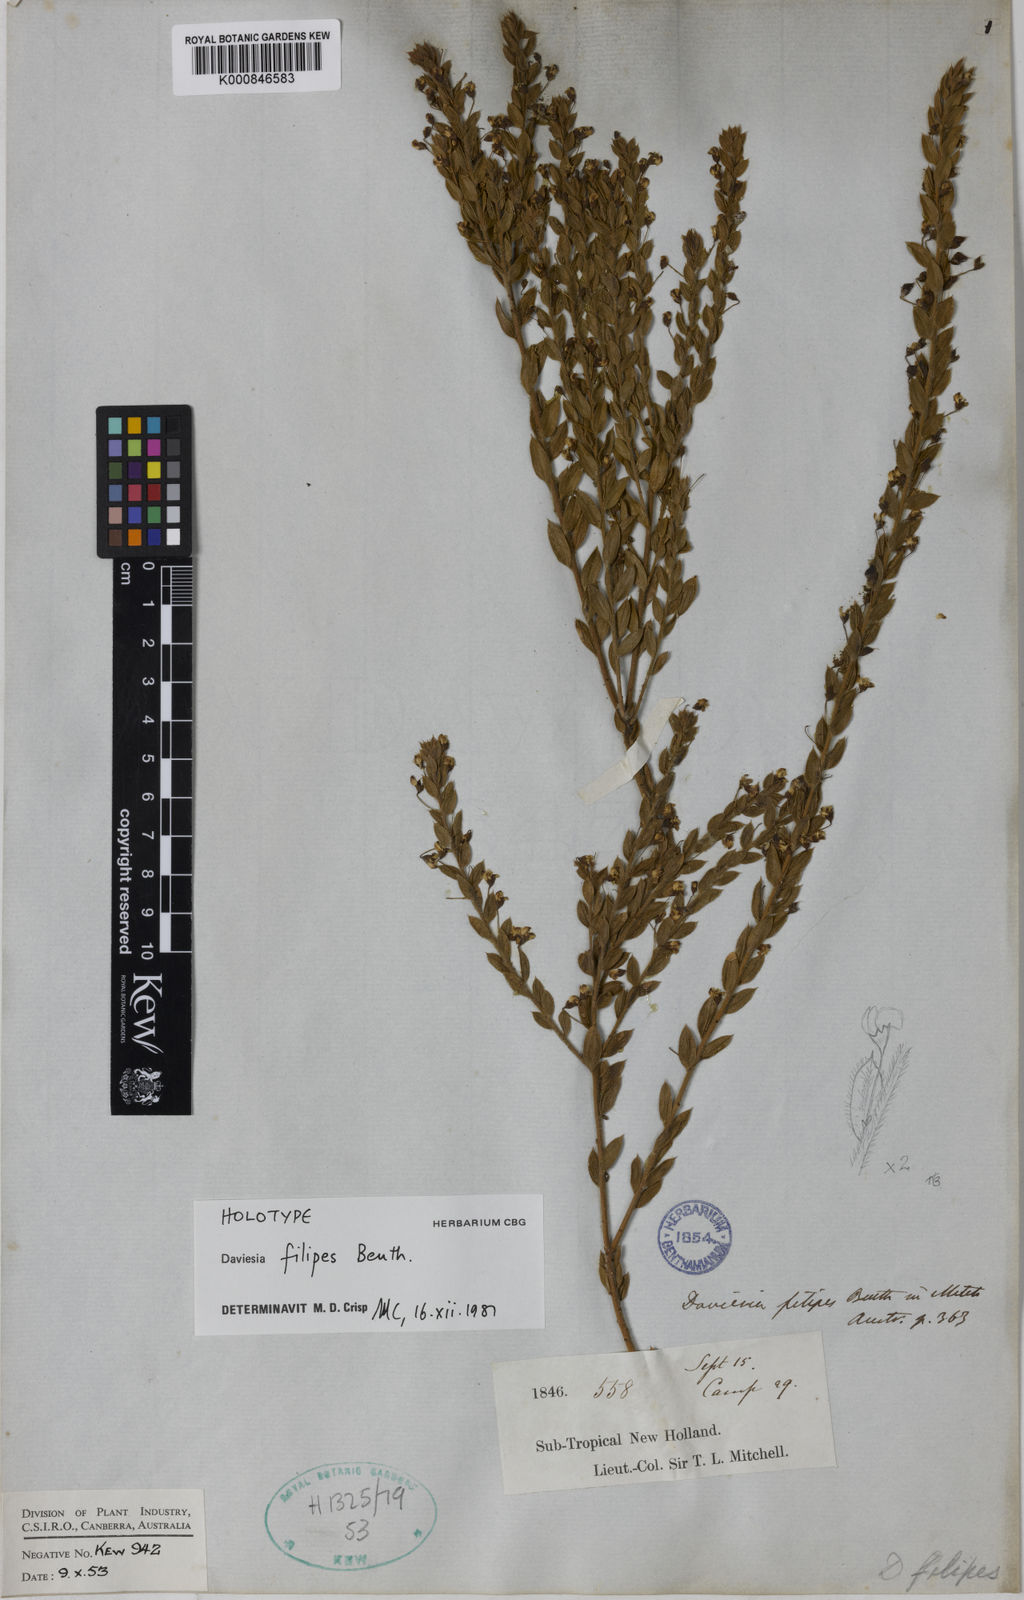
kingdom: Plantae
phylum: Tracheophyta
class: Magnoliopsida
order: Fabales
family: Fabaceae
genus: Daviesia
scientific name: Daviesia filipes
